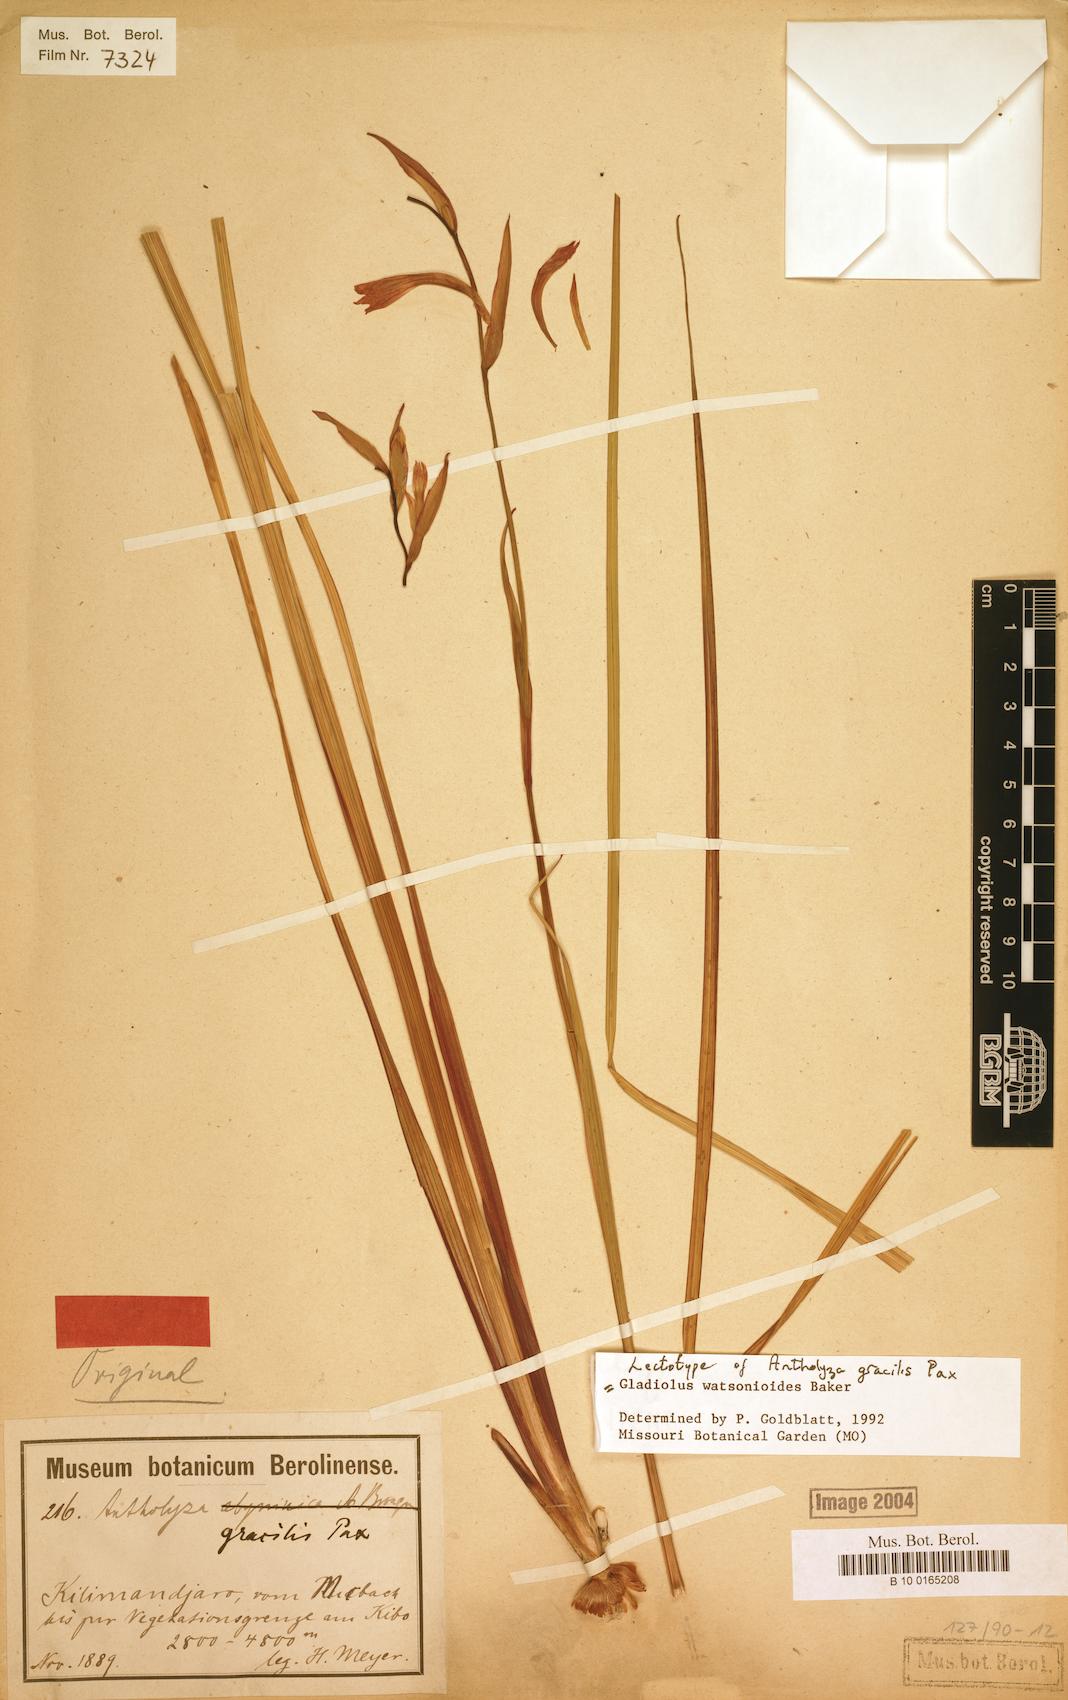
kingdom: Plantae
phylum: Tracheophyta
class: Liliopsida
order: Asparagales
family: Iridaceae
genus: Gladiolus
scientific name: Gladiolus watsonioides
